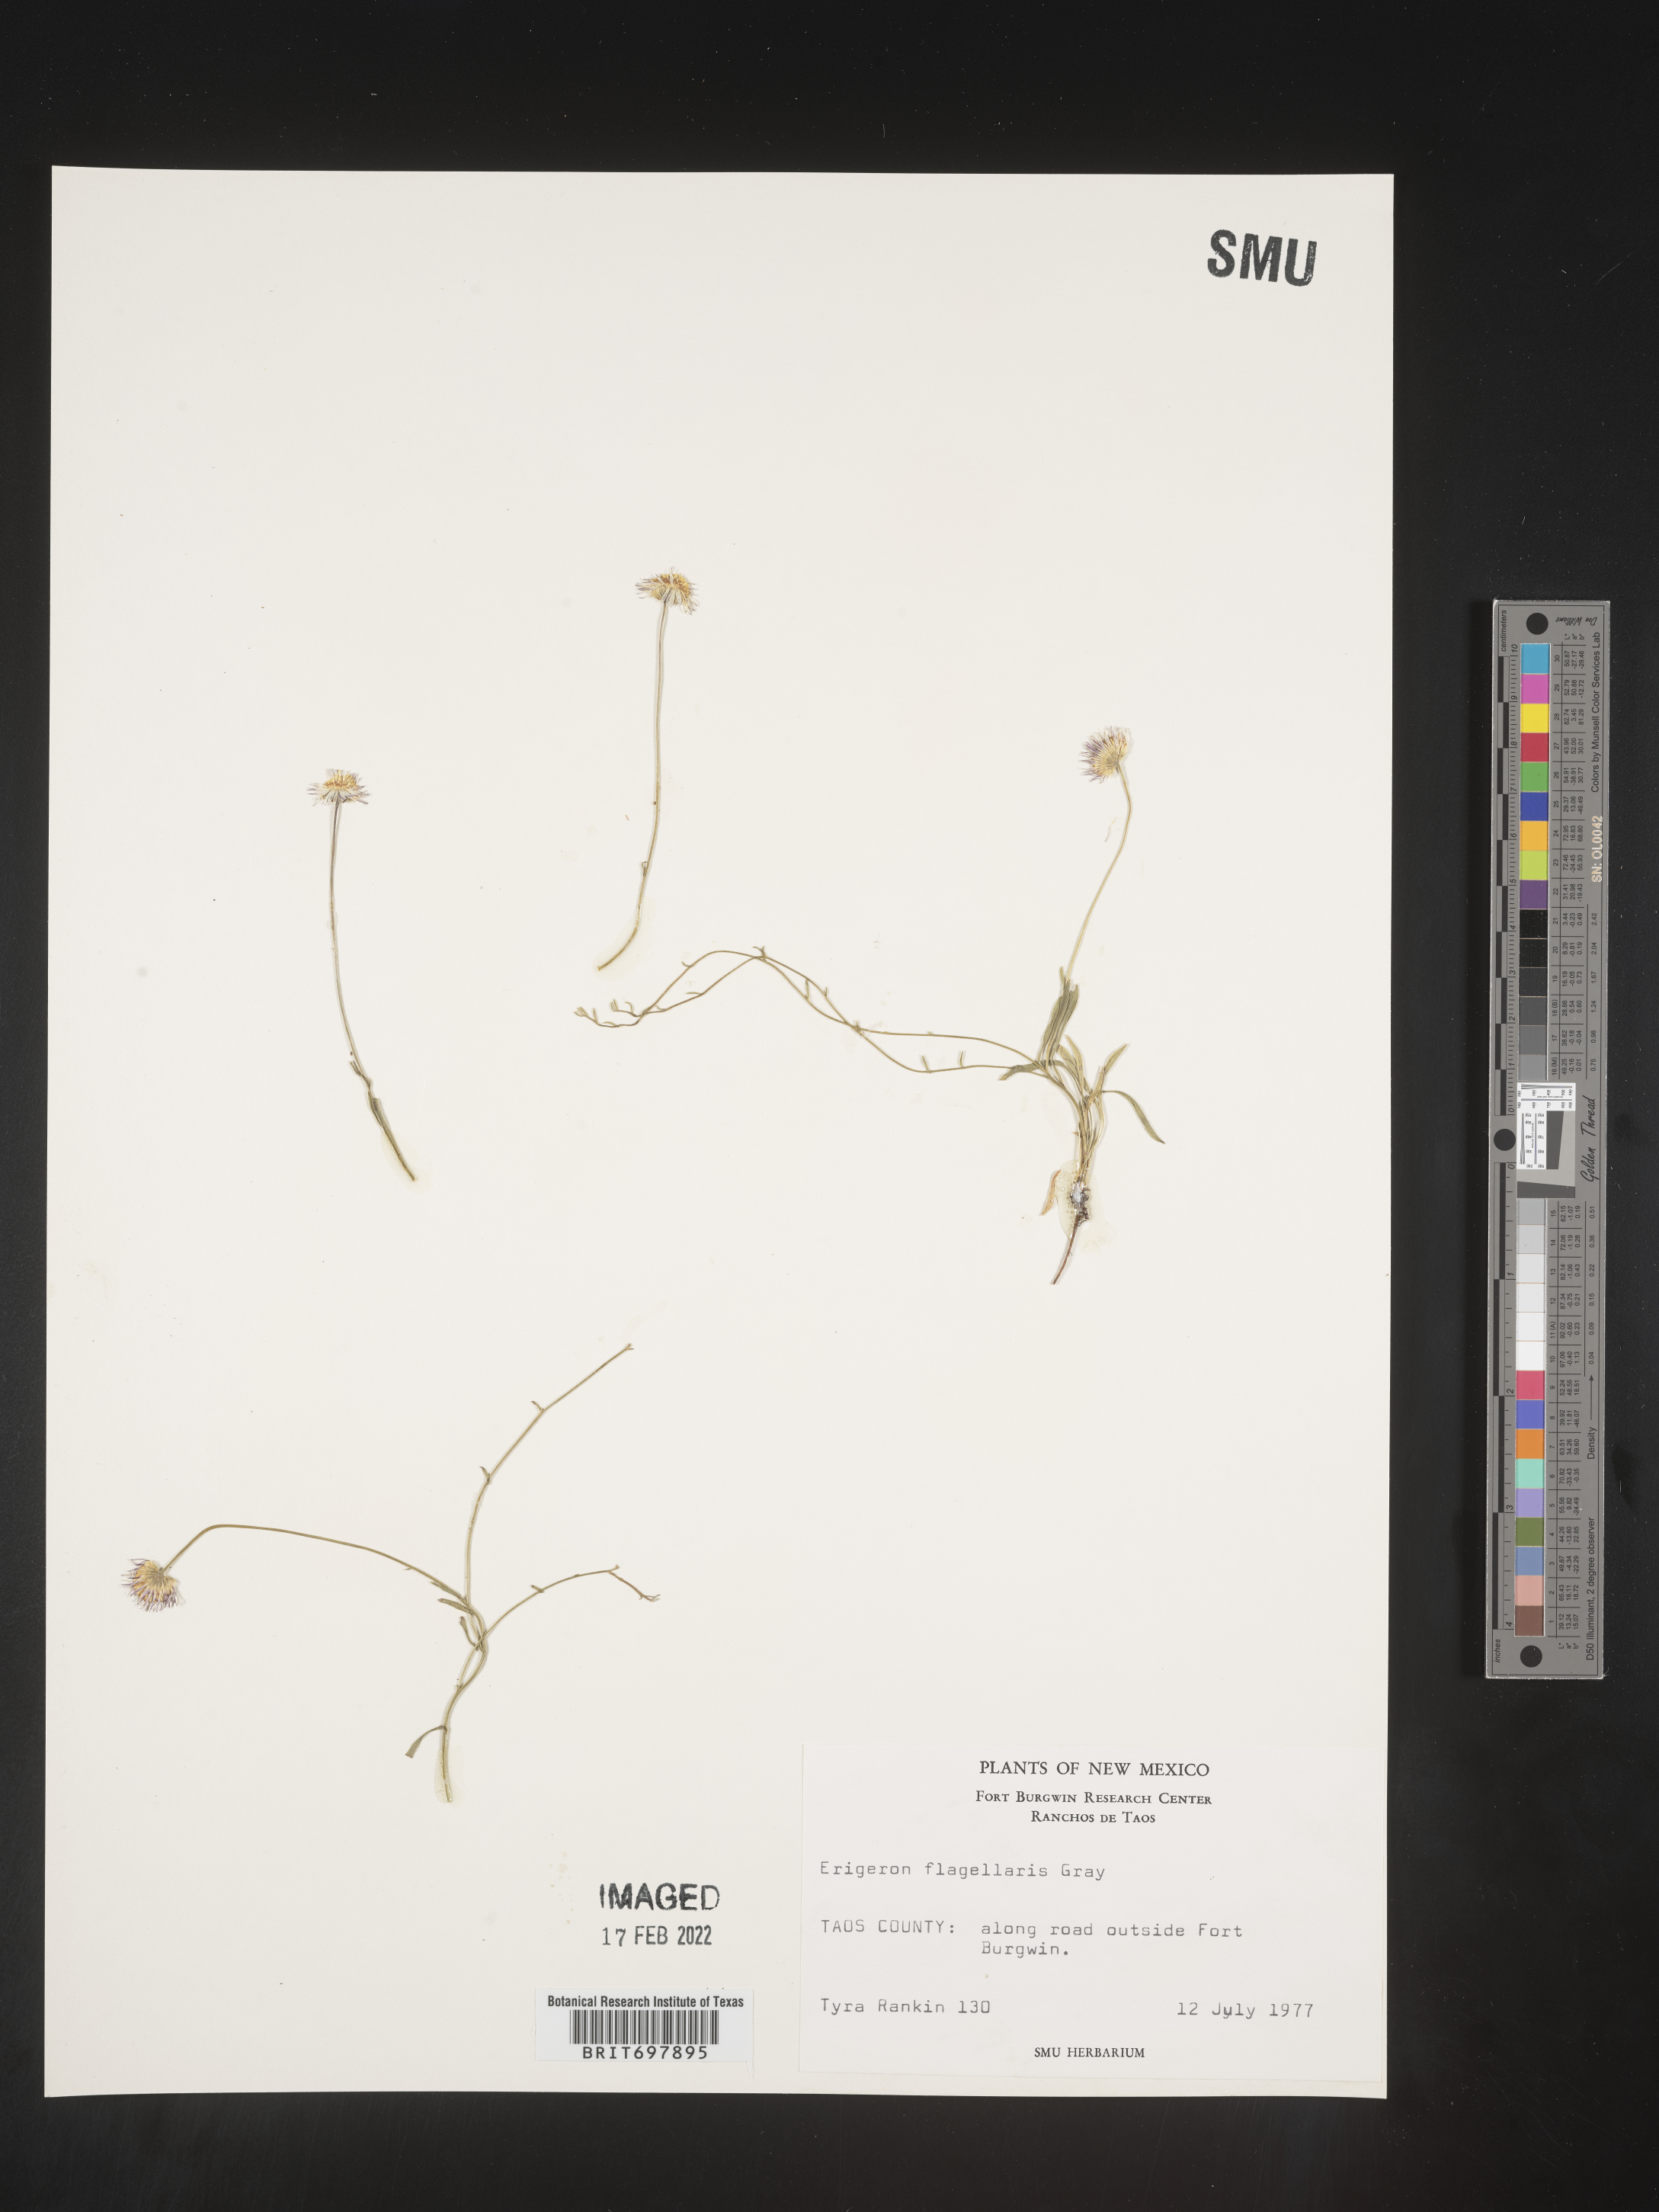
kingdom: Plantae
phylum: Tracheophyta
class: Magnoliopsida
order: Asterales
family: Asteraceae
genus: Erigeron
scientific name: Erigeron flagellaris
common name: Running fleabane
